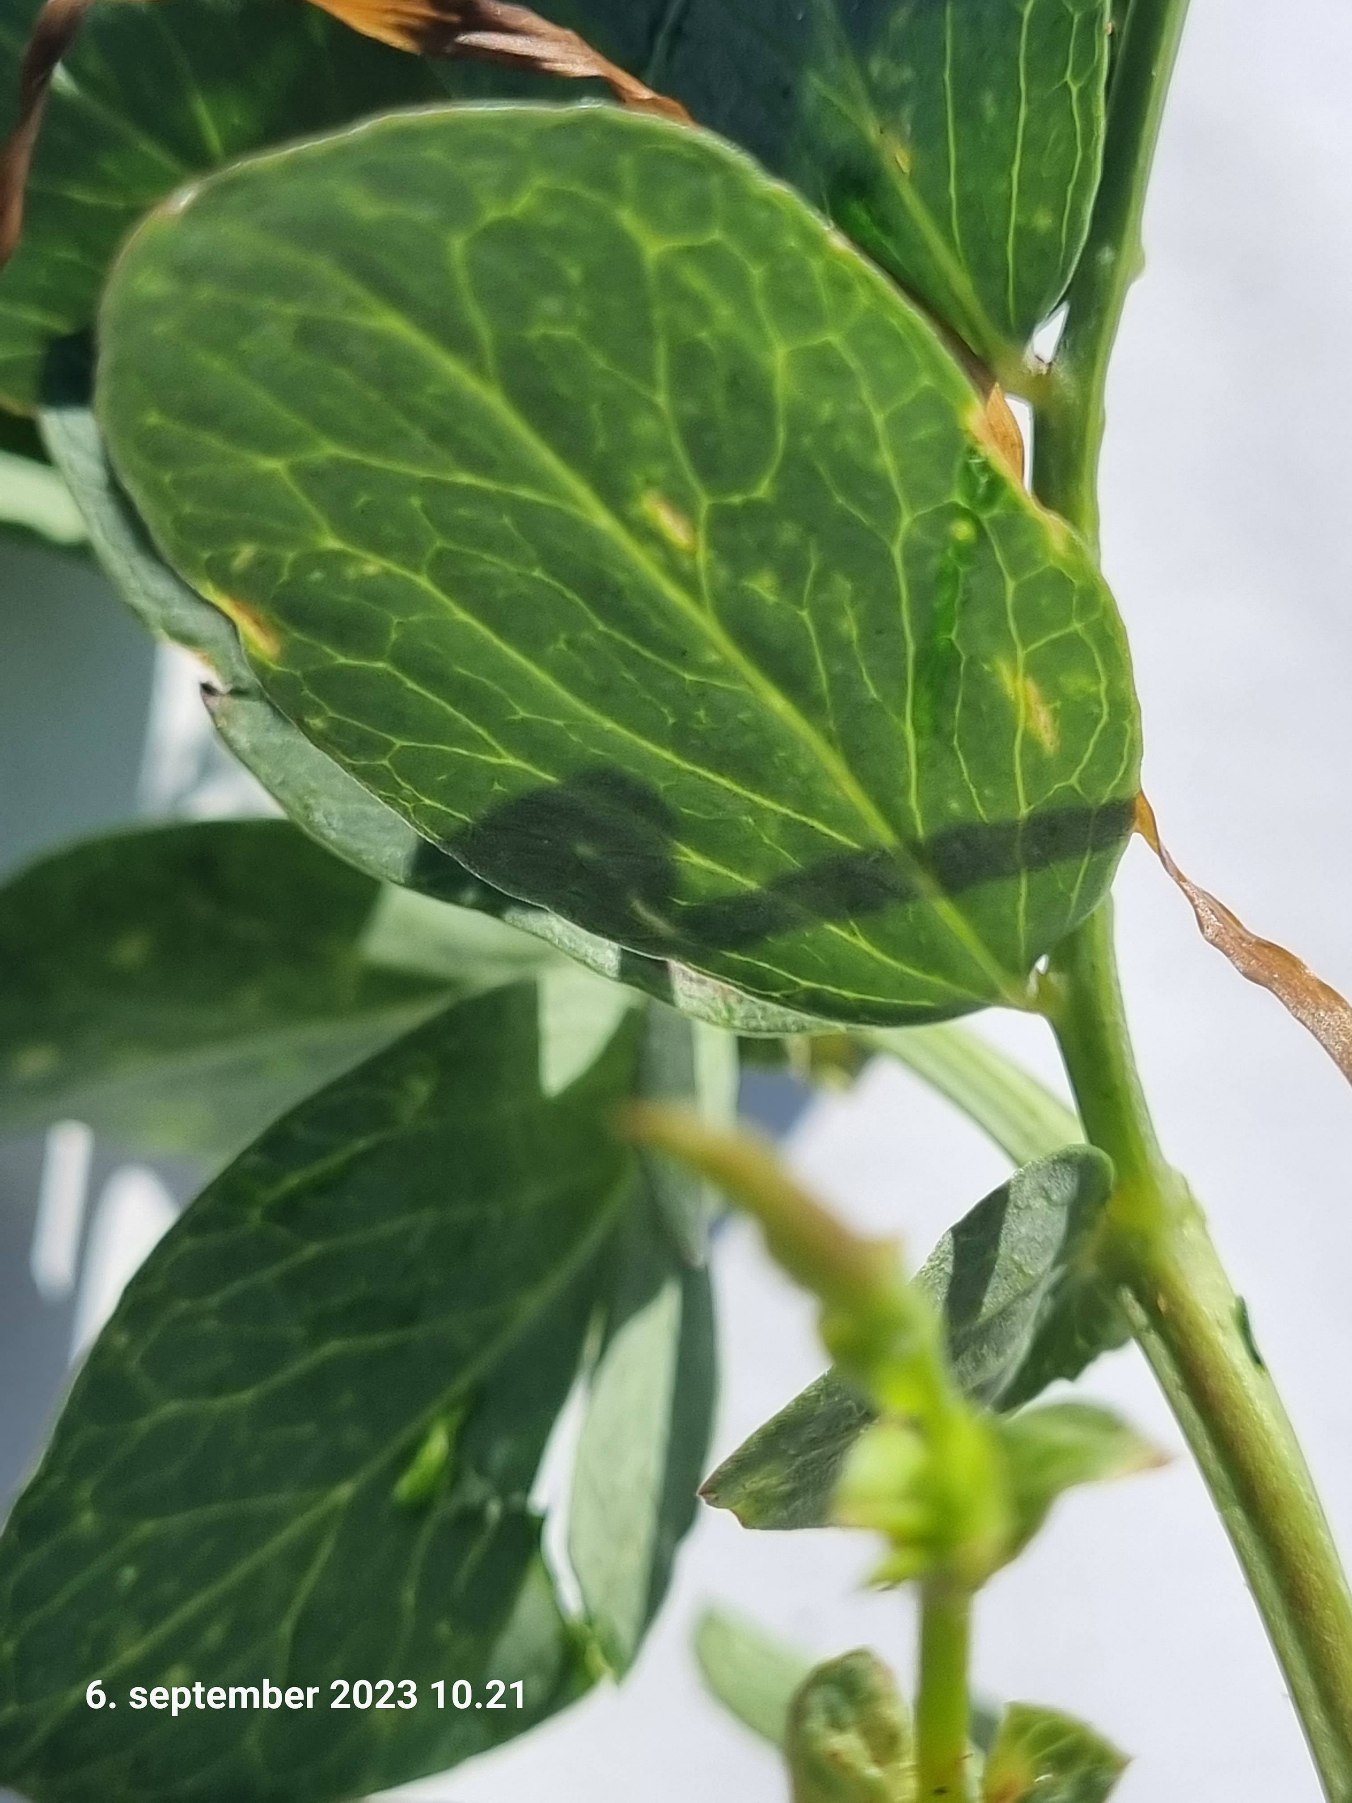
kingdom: Plantae
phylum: Tracheophyta
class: Magnoliopsida
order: Fabales
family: Fabaceae
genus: Lathyrus
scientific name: Lathyrus japonicus
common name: Strand-fladbælg
